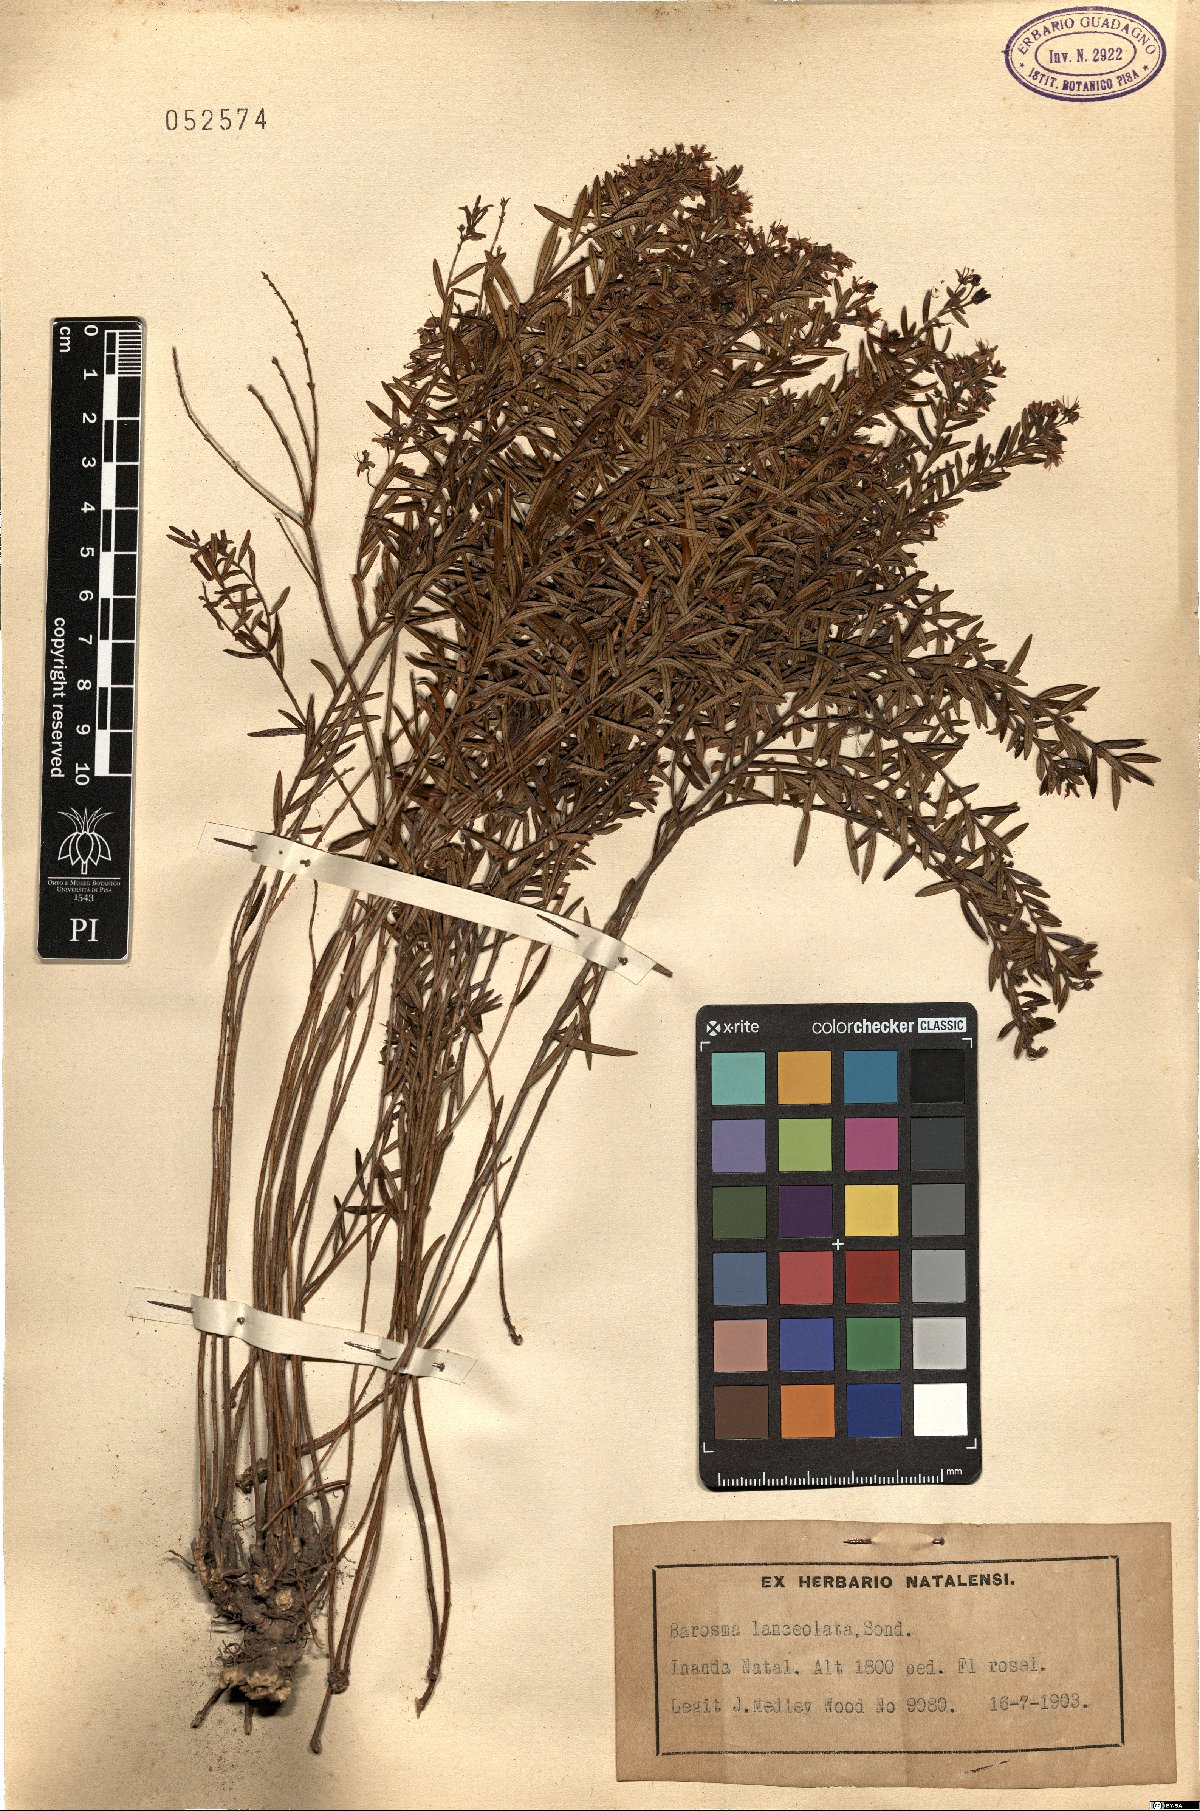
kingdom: Plantae
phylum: Tracheophyta
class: Magnoliopsida
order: Sapindales
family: Rutaceae
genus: Agathosma
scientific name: Agathosma
